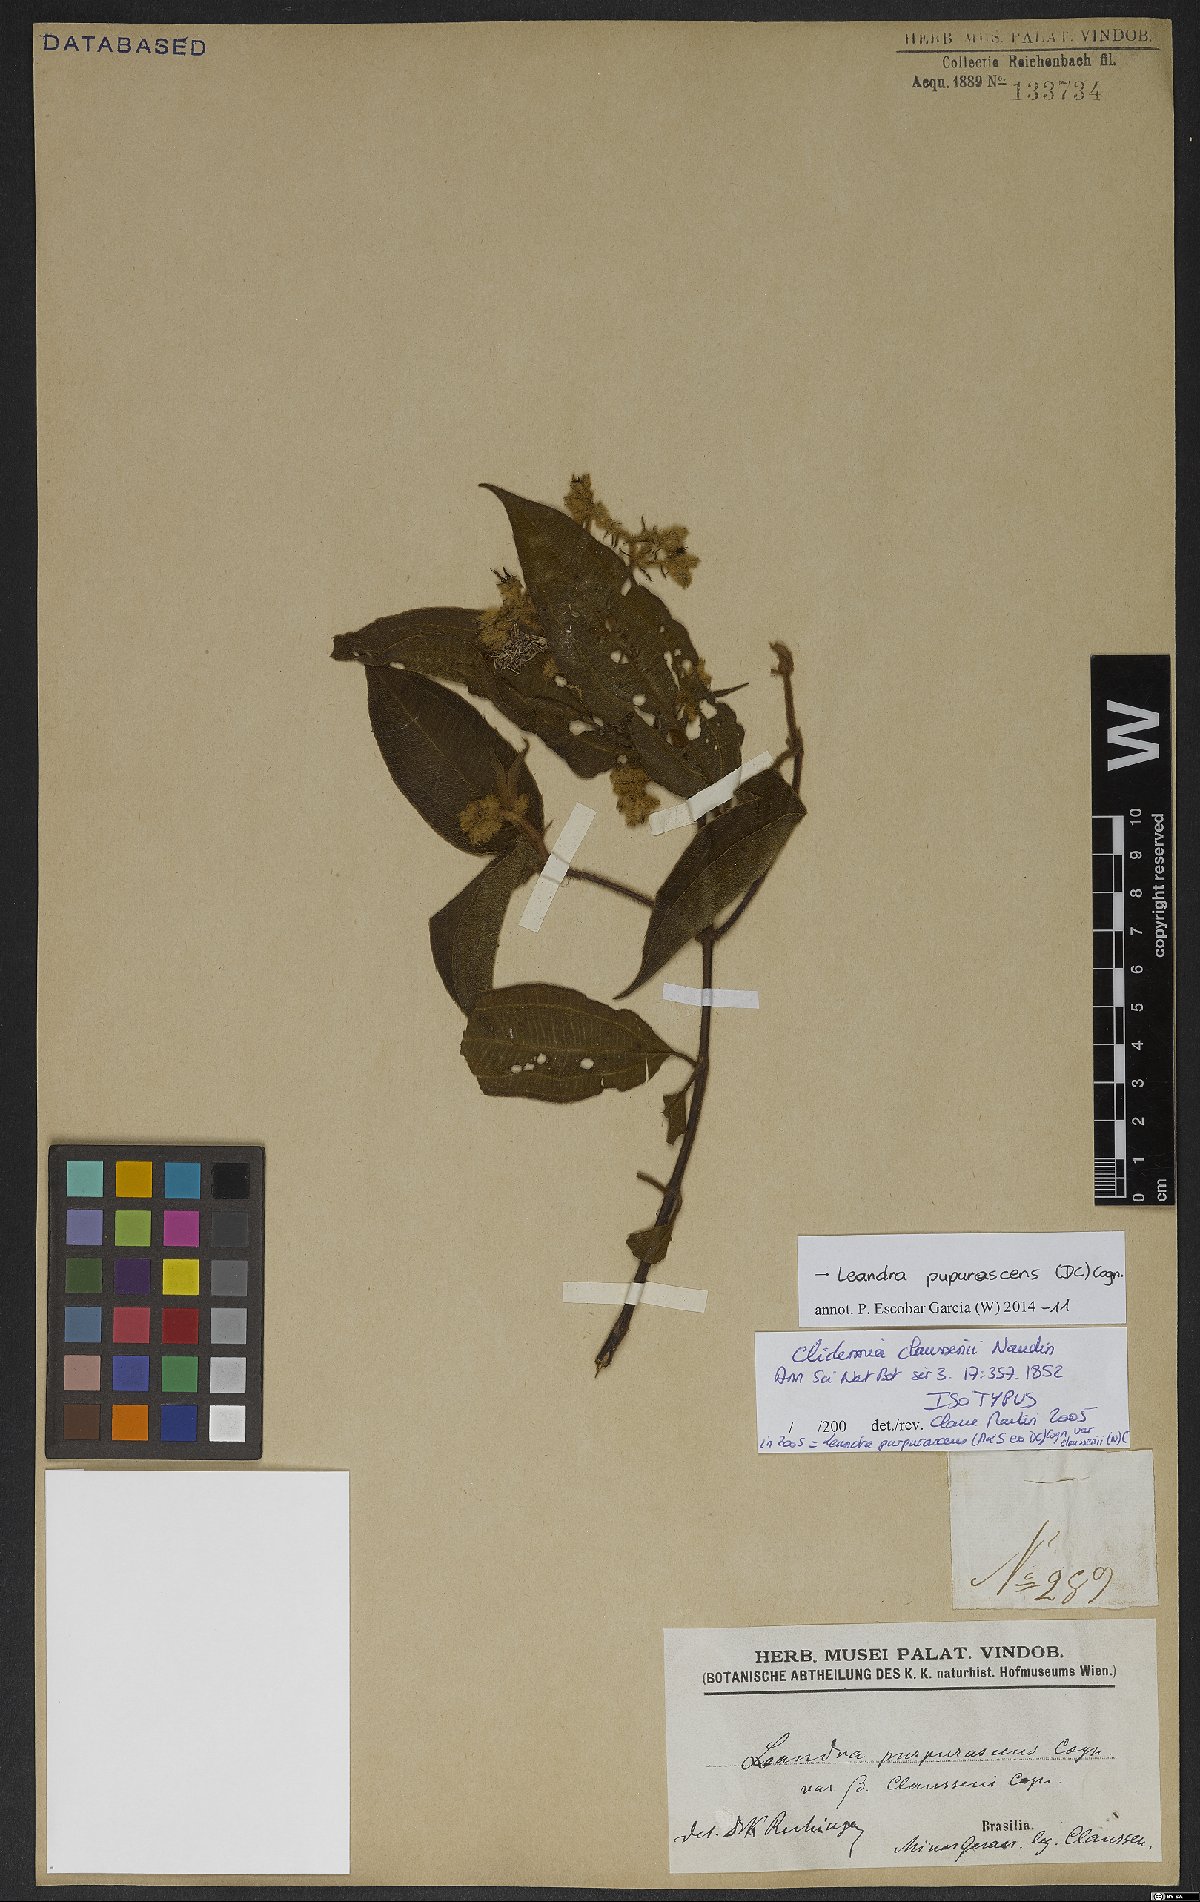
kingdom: Plantae
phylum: Tracheophyta
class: Magnoliopsida
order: Myrtales
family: Melastomataceae
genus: Miconia
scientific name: Miconia microstachya
